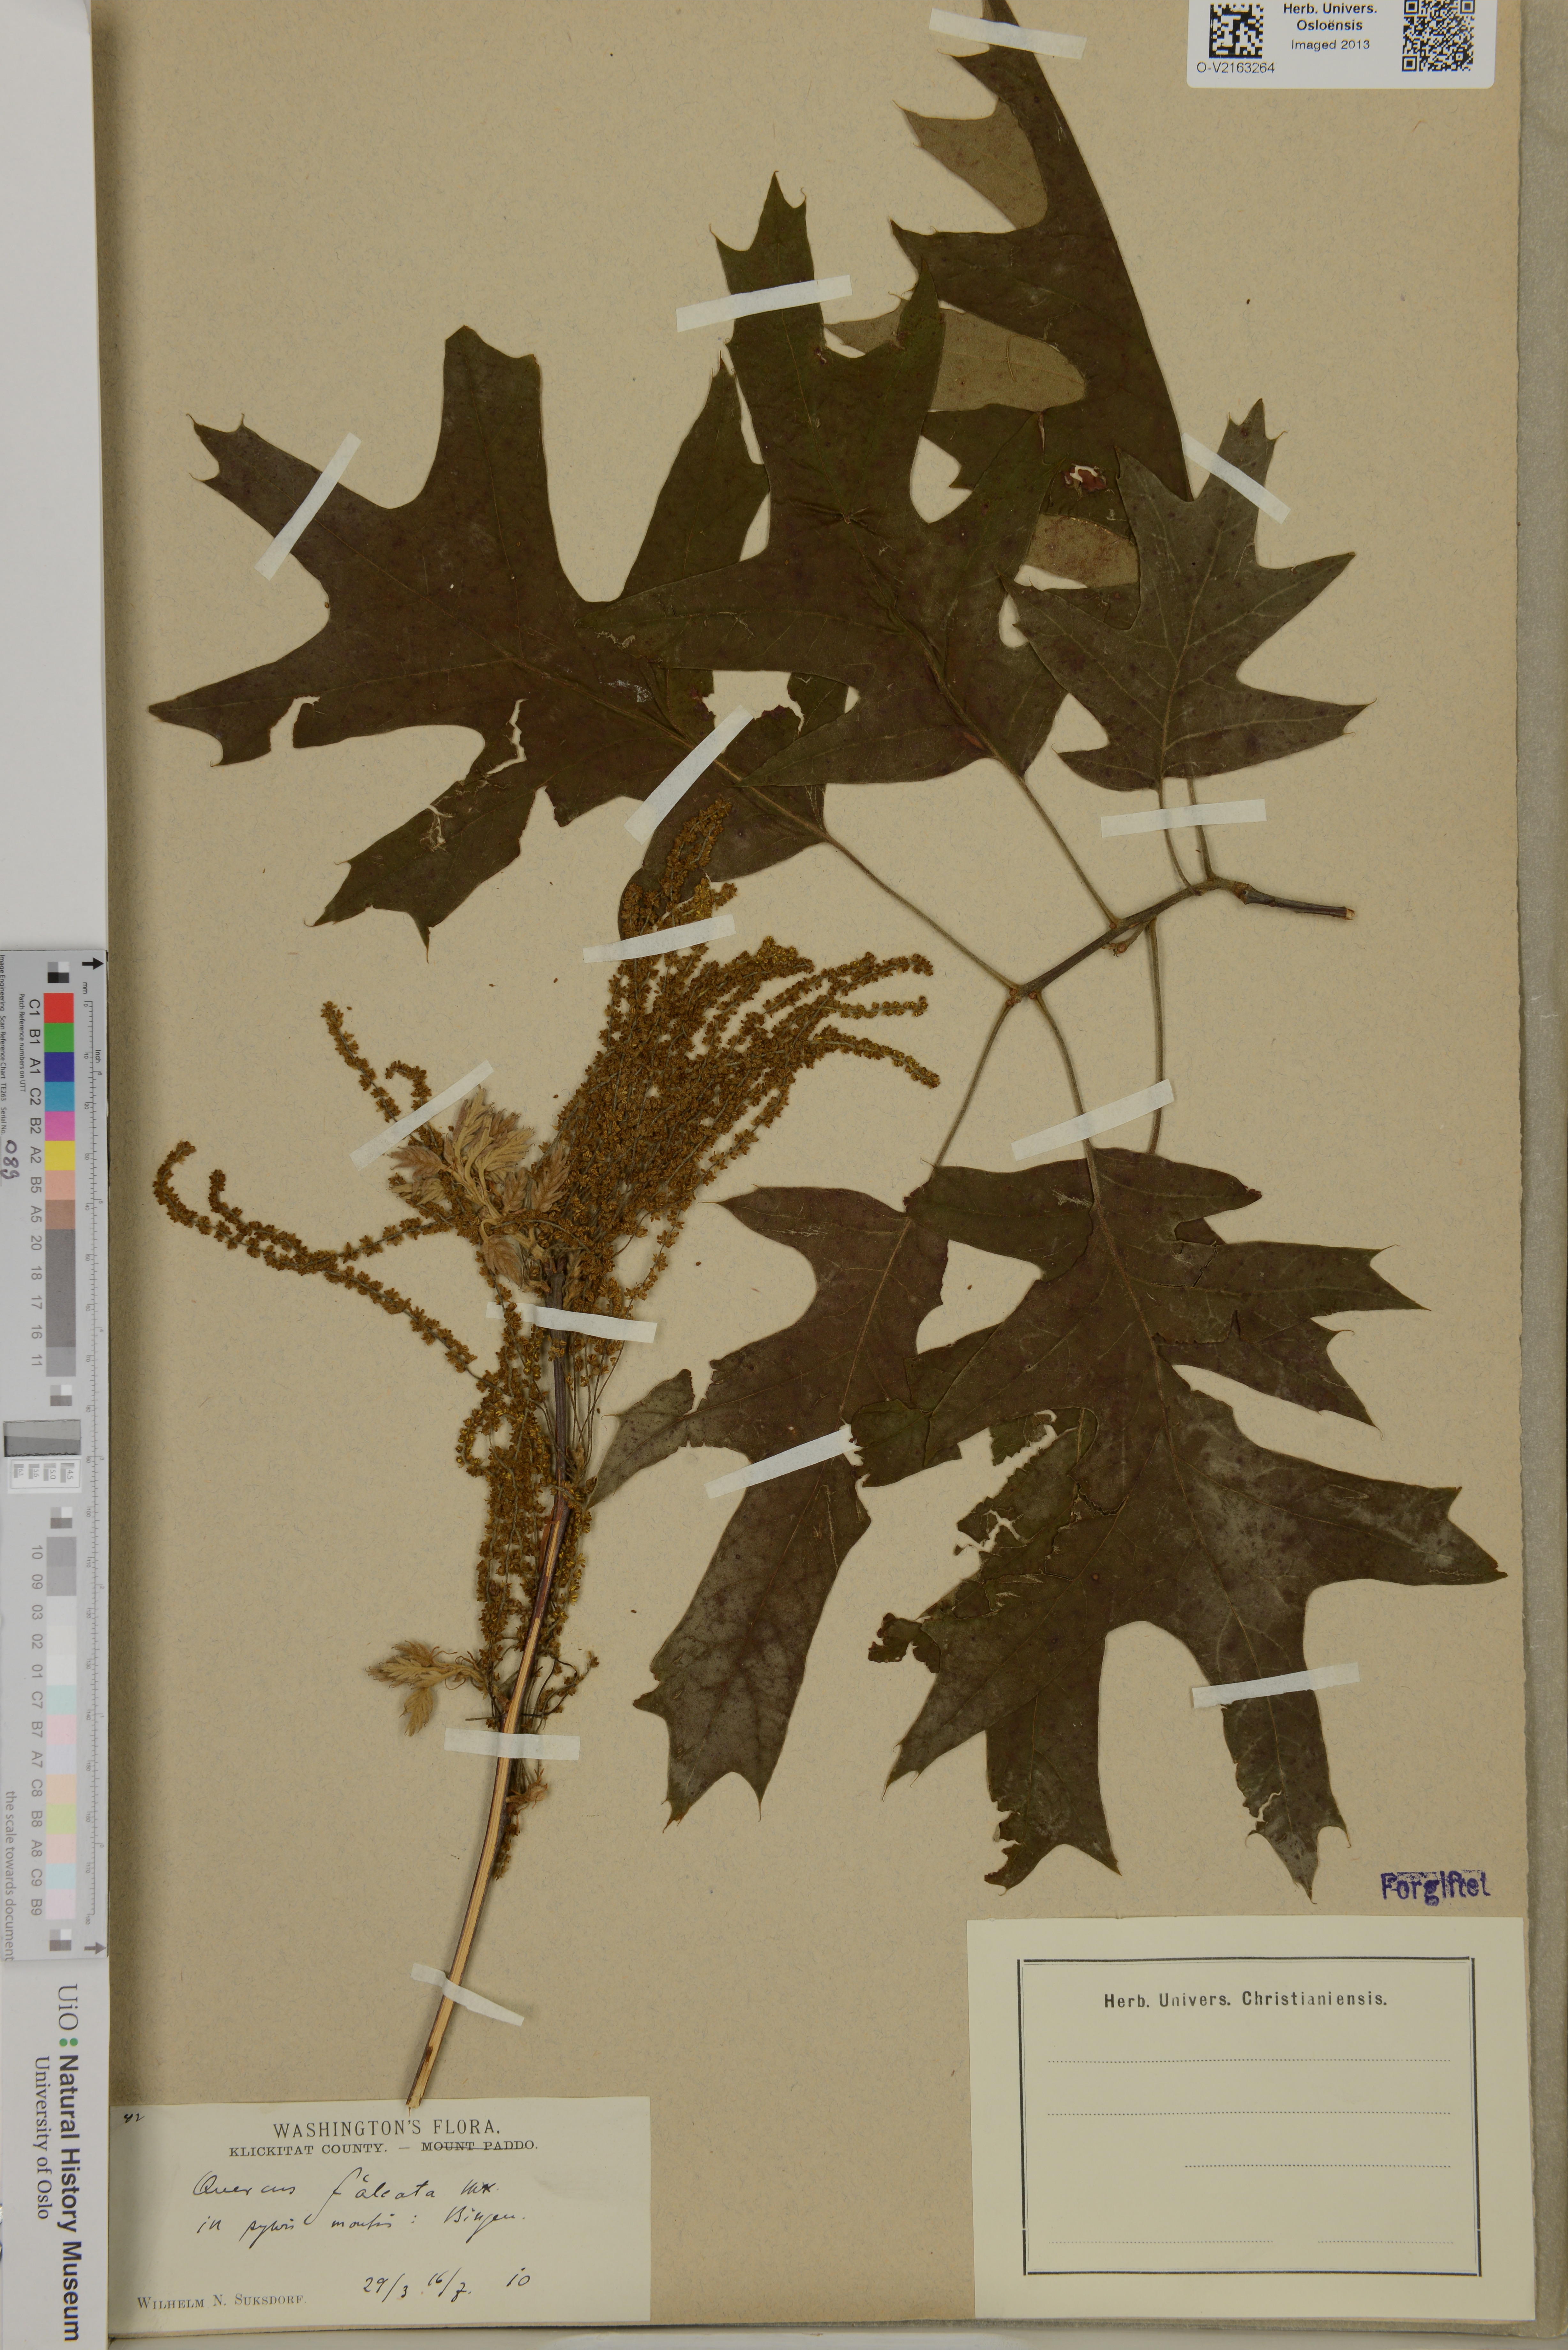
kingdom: Plantae
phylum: Tracheophyta
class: Magnoliopsida
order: Fagales
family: Fagaceae
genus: Quercus
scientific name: Quercus falcata
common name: Southern red oak
